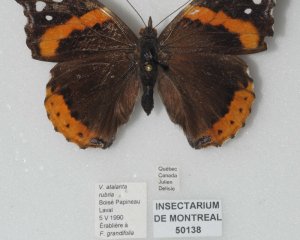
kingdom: Animalia
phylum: Arthropoda
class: Insecta
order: Lepidoptera
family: Nymphalidae
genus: Vanessa
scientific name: Vanessa atalanta
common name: Red Admiral
